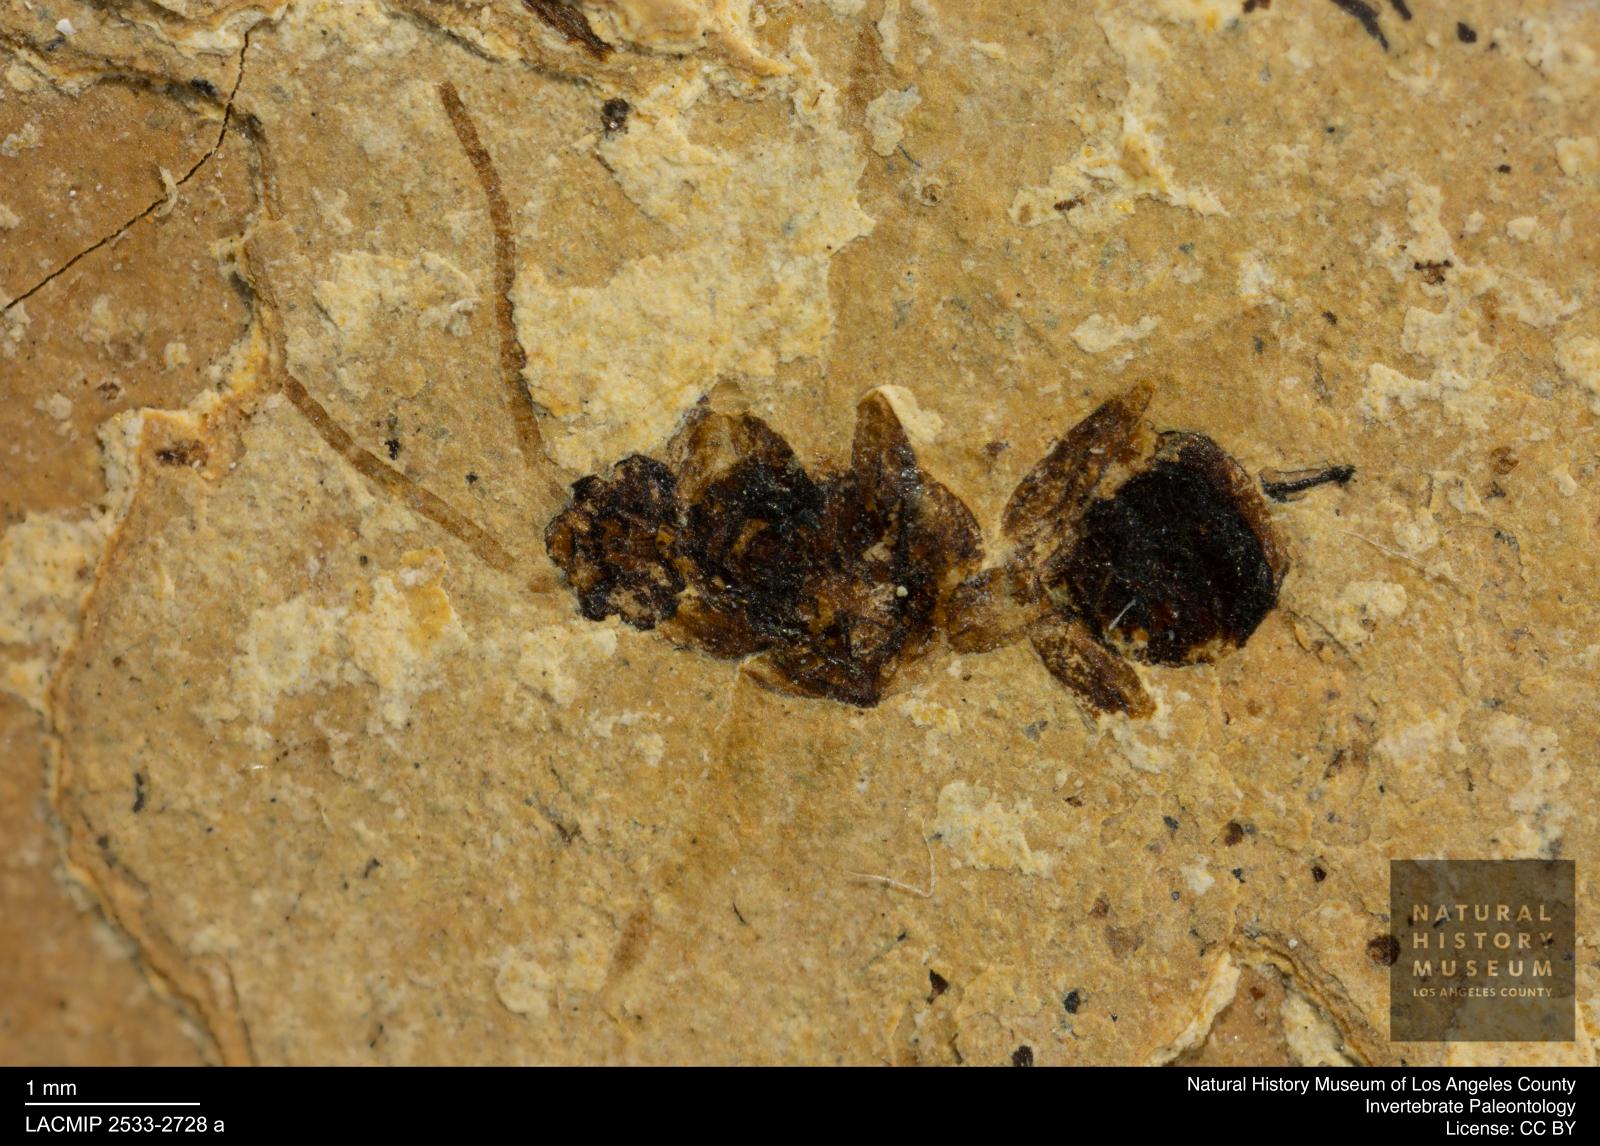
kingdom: Animalia
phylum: Arthropoda
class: Insecta
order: Hymenoptera
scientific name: Hymenoptera
